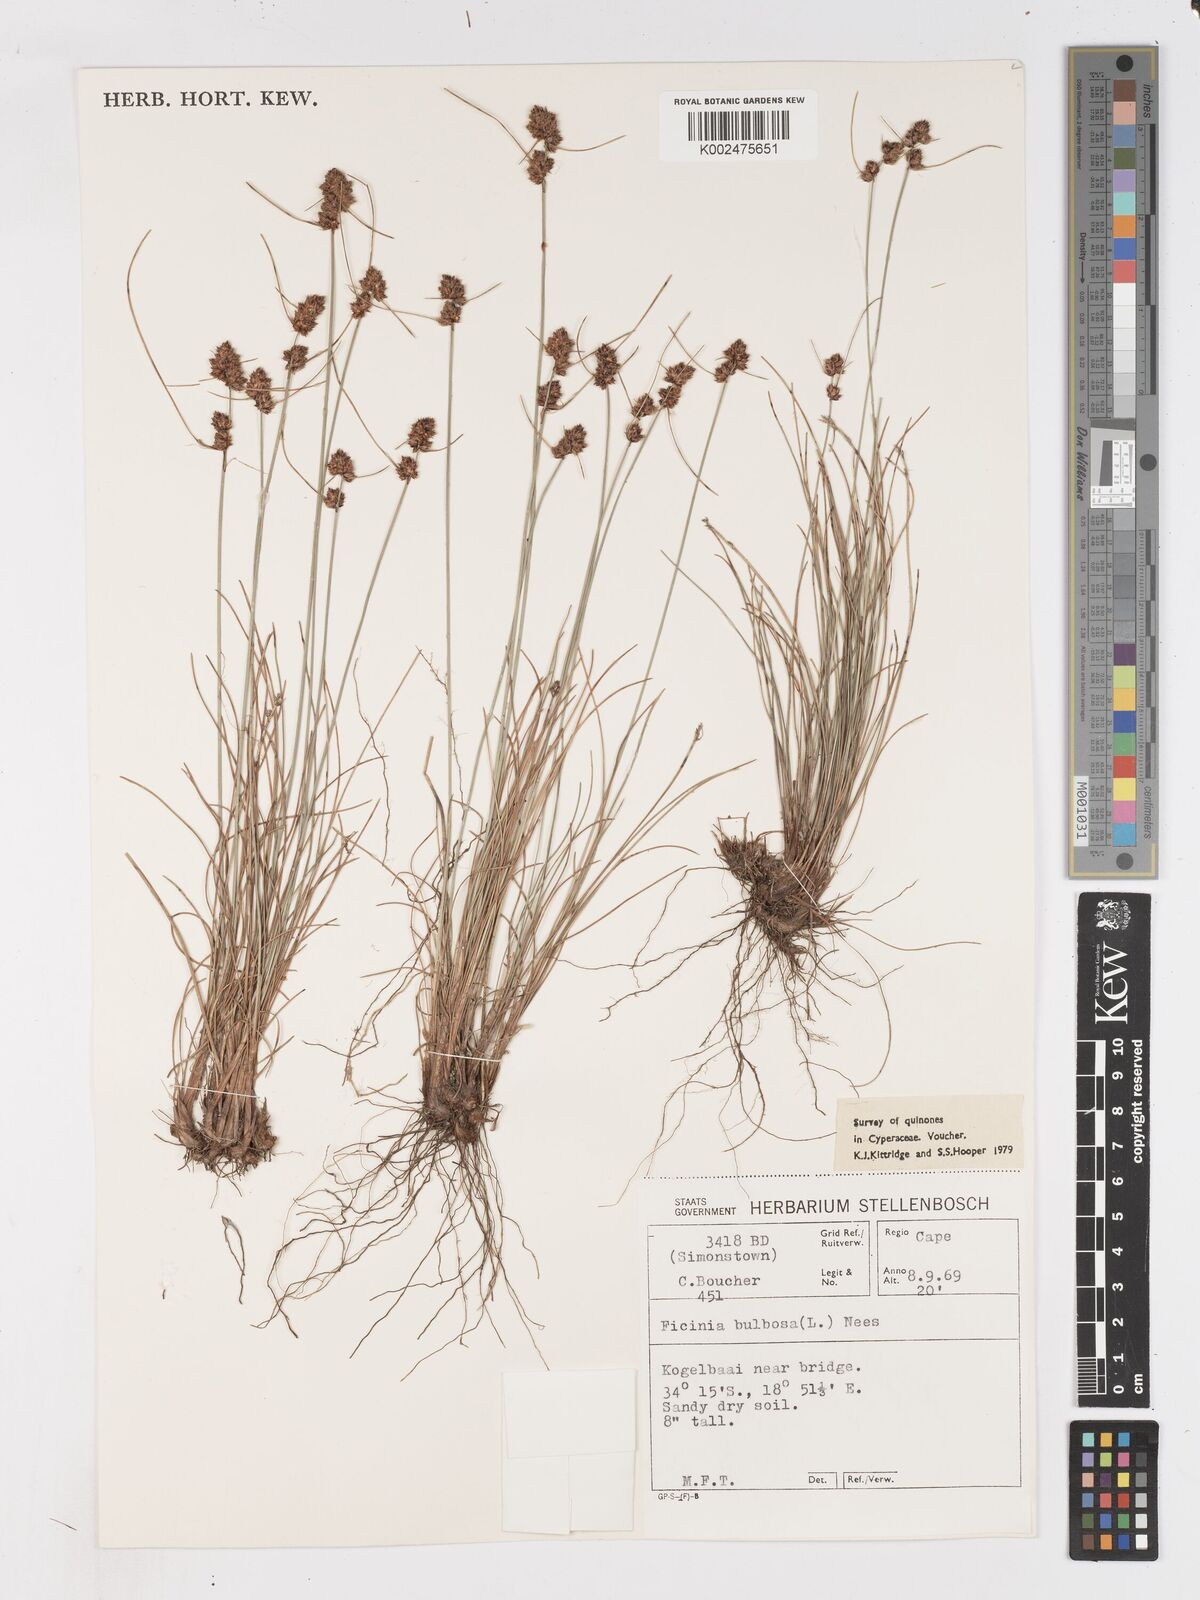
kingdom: Plantae
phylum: Tracheophyta
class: Liliopsida
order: Poales
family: Cyperaceae
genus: Ficinia
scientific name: Ficinia bulbosa
